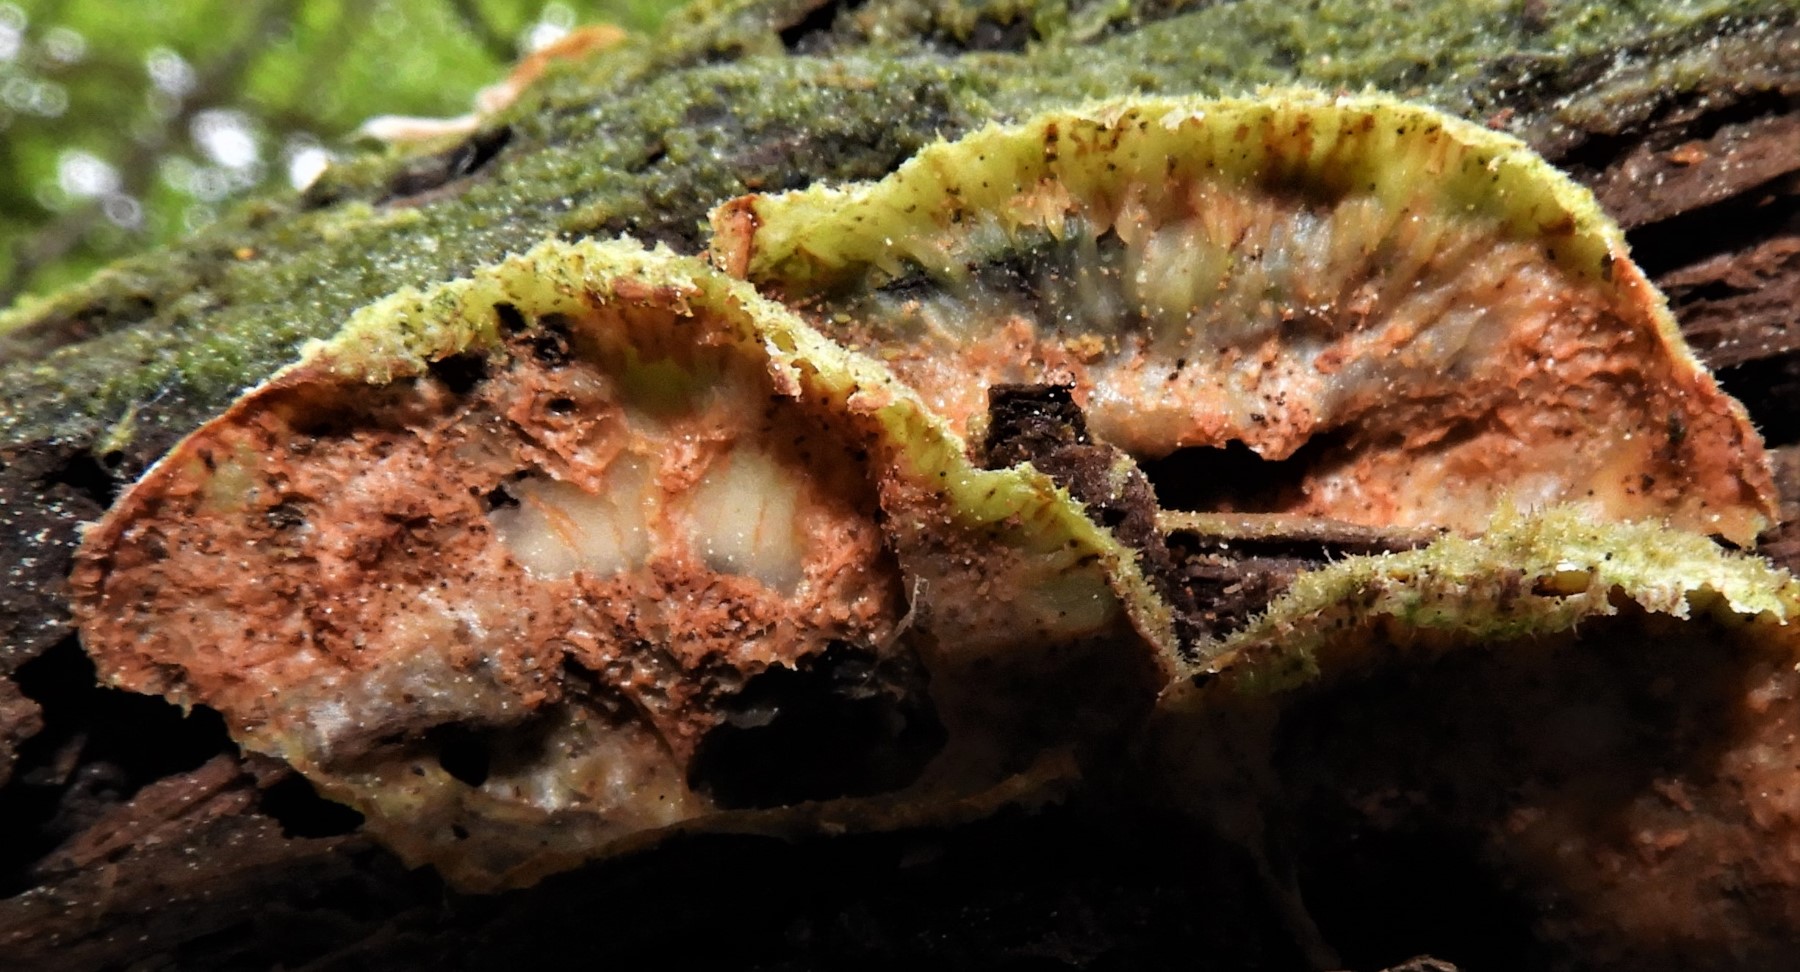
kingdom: Fungi
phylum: Basidiomycota
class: Agaricomycetes
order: Russulales
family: Stereaceae
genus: Stereum
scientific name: Stereum hirsutum
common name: håret lædersvamp
